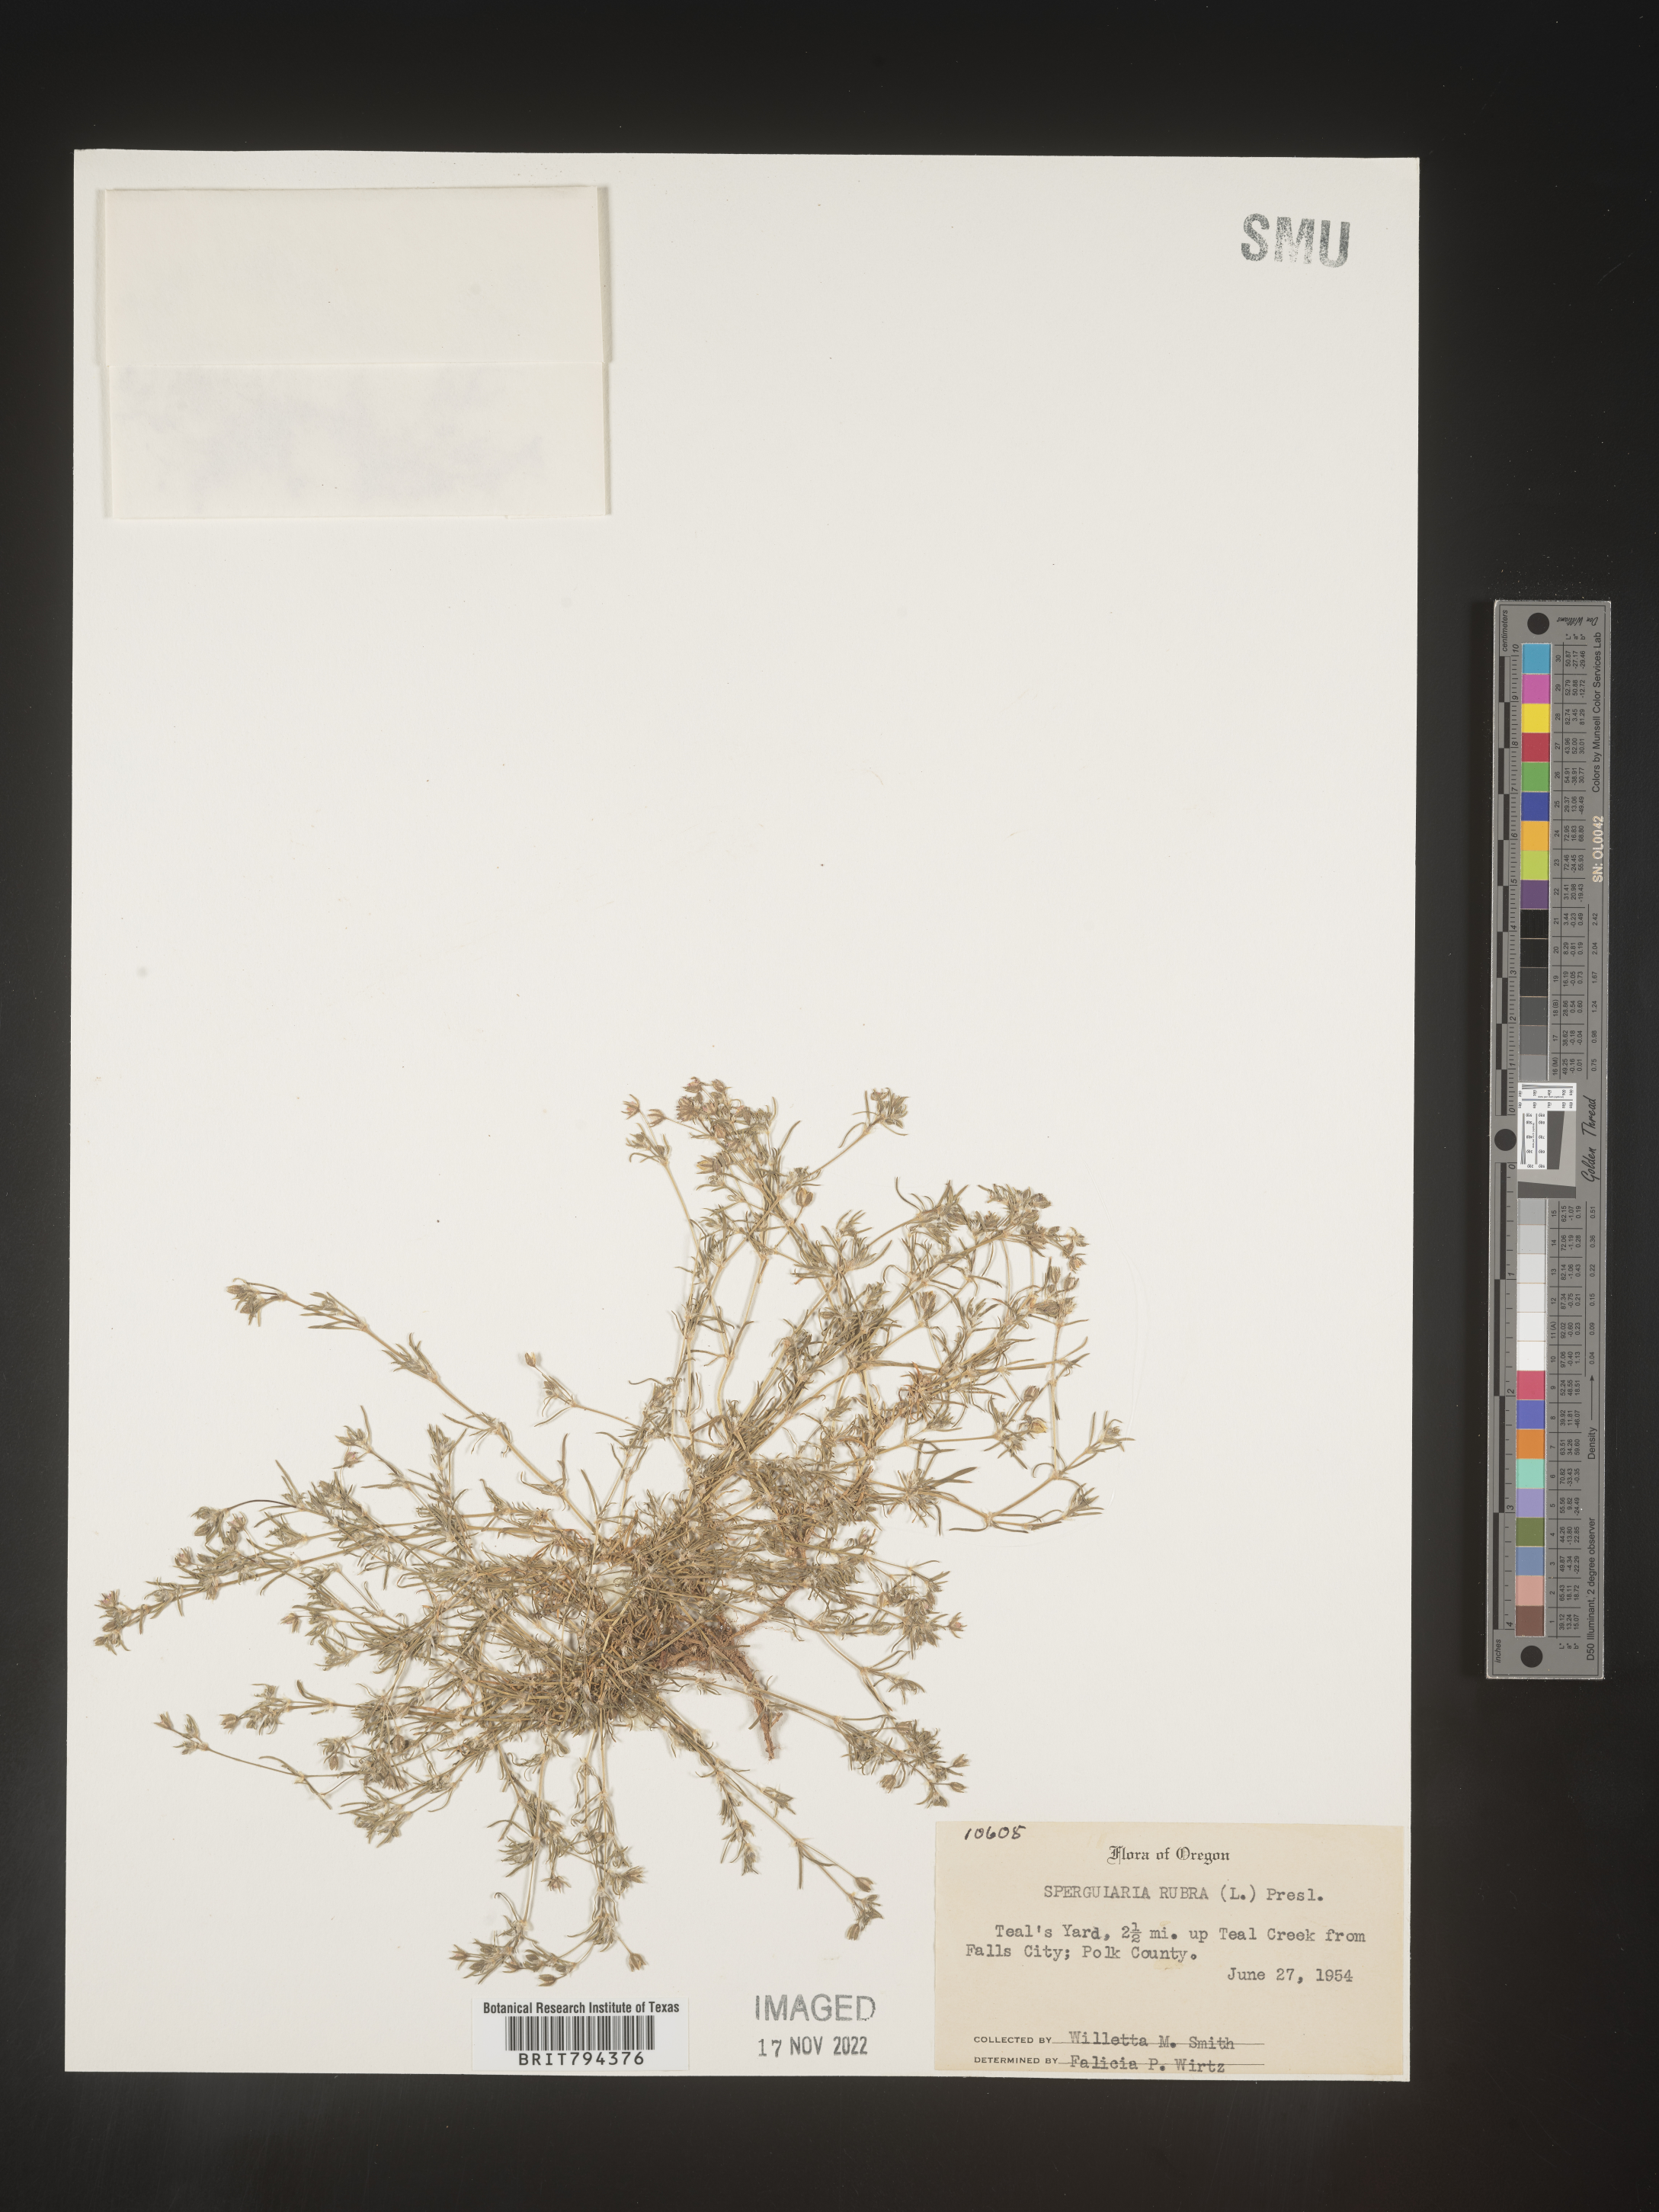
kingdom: Plantae
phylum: Tracheophyta
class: Magnoliopsida
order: Caryophyllales
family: Caryophyllaceae
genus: Spergularia
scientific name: Spergularia rubra
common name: Red sand-spurrey
